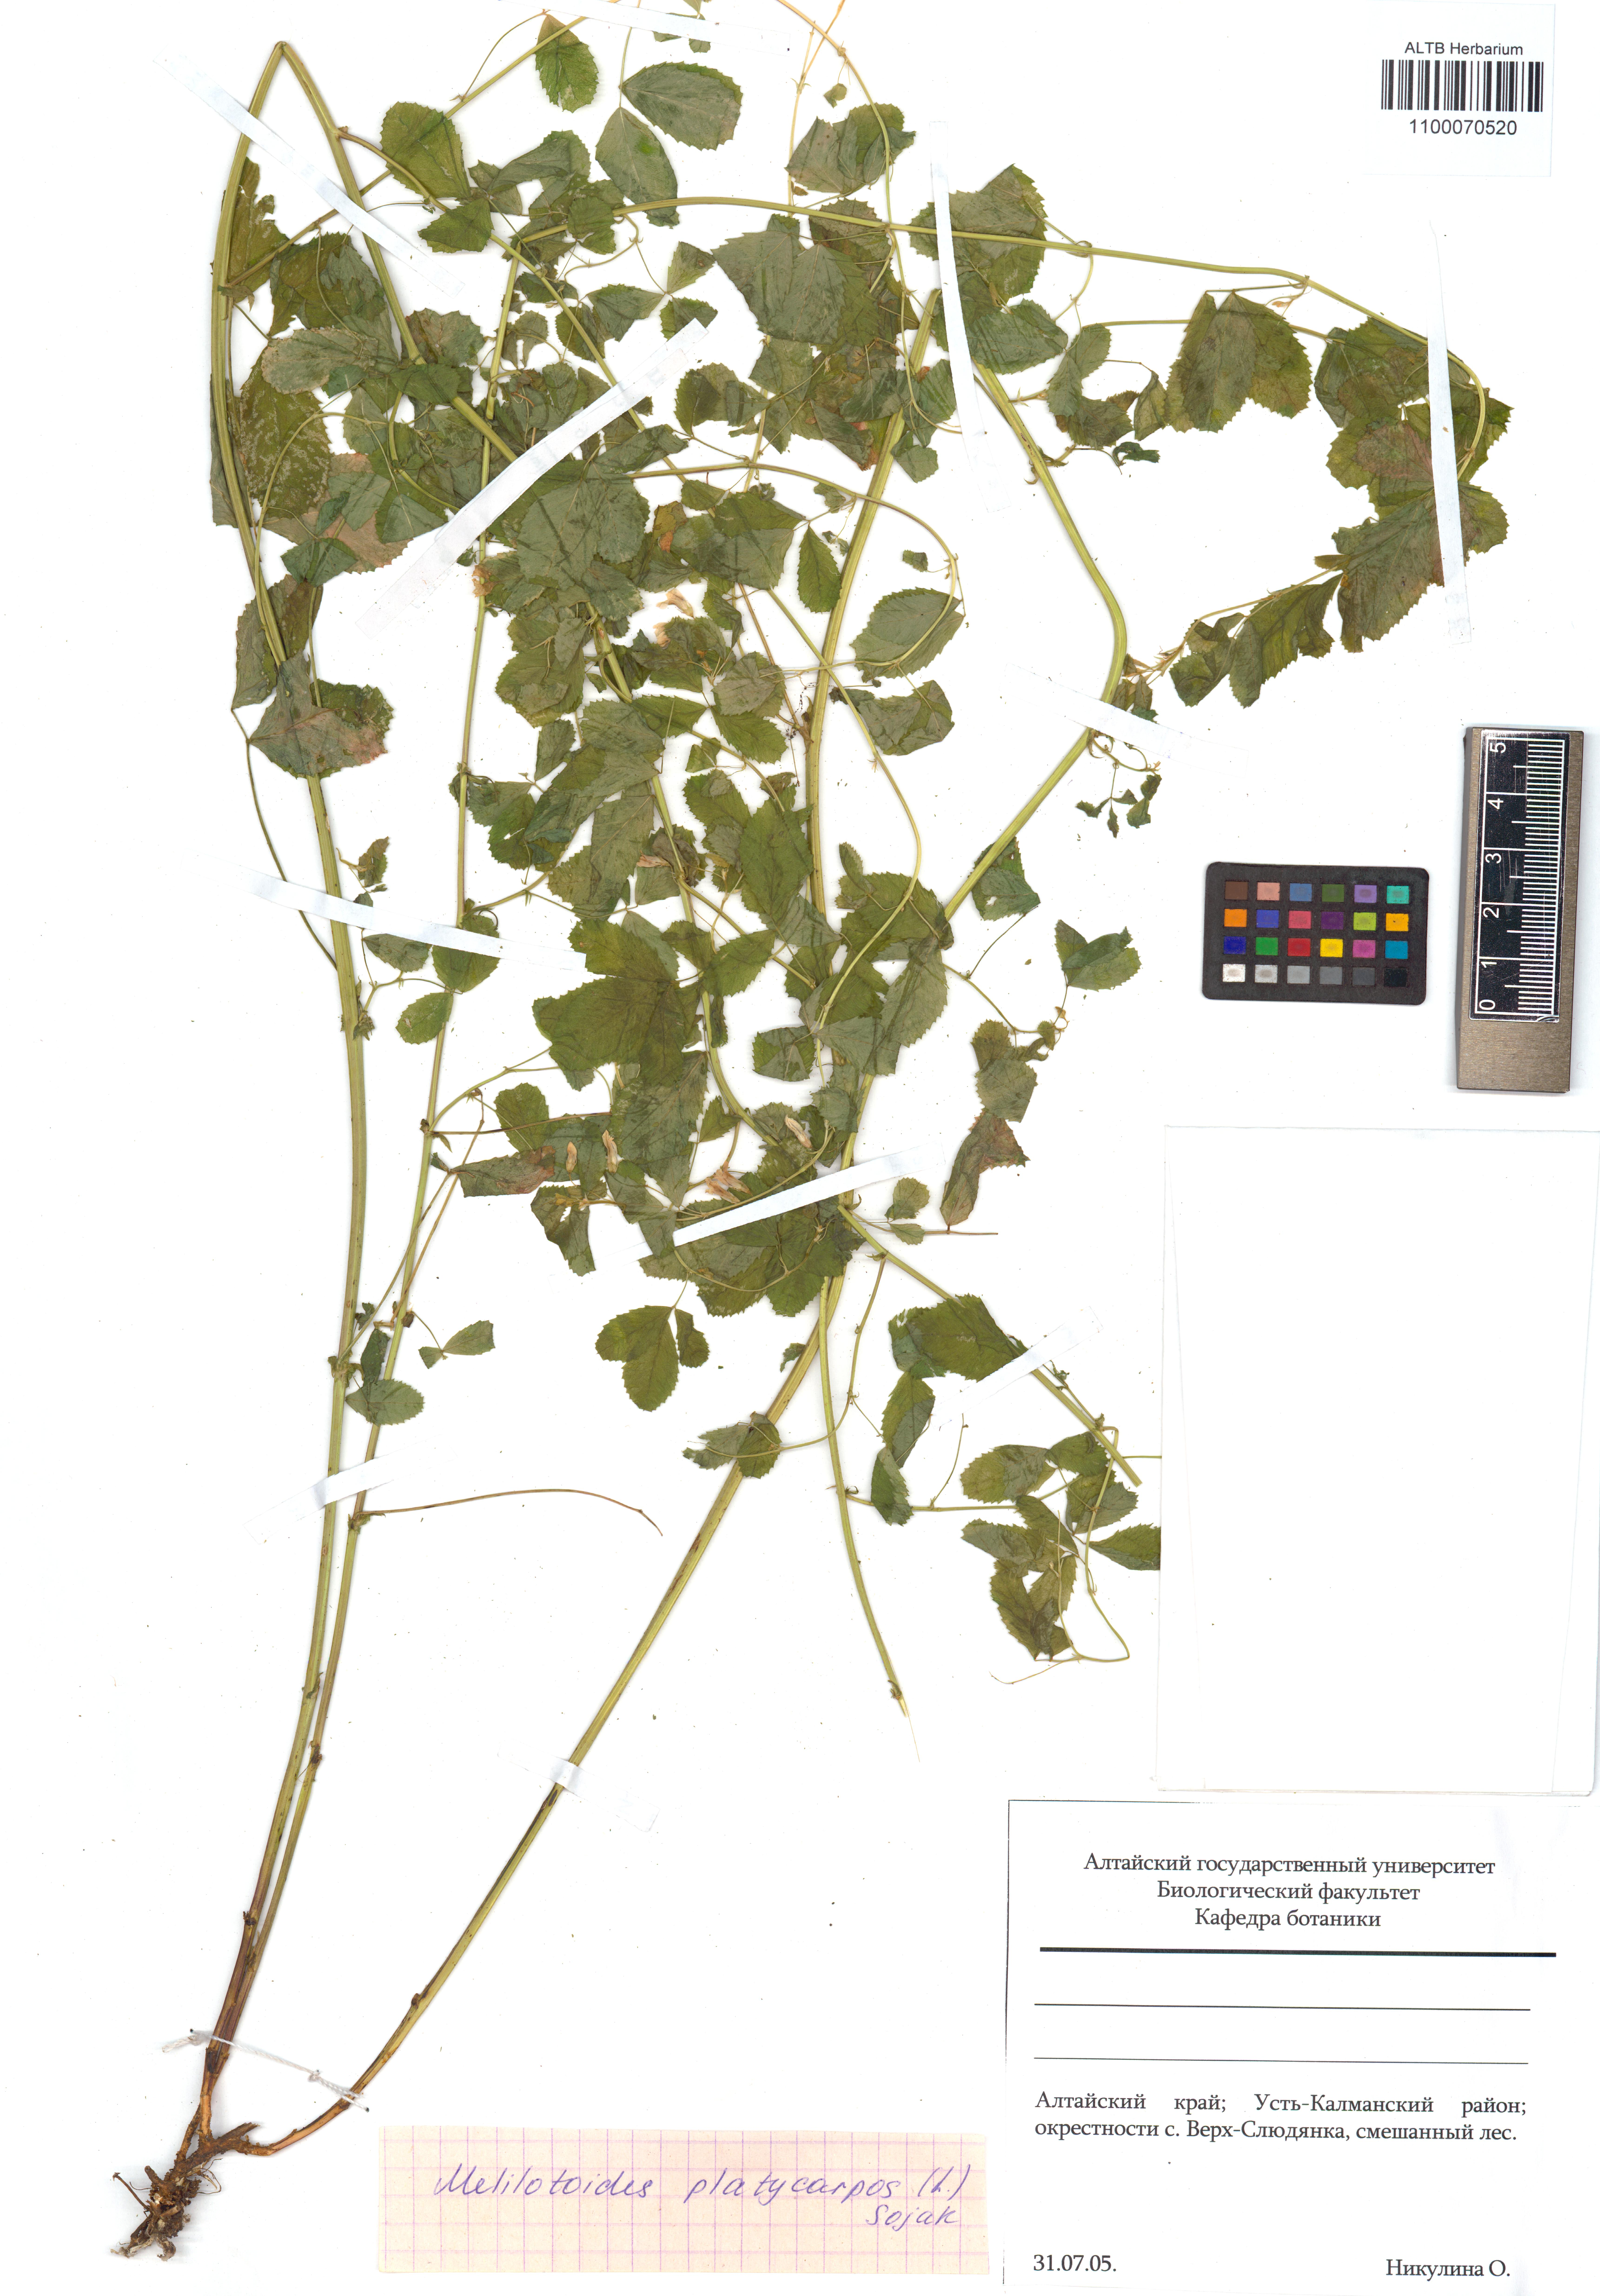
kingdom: Plantae
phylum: Tracheophyta
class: Magnoliopsida
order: Fabales
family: Fabaceae
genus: Medicago
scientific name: Medicago platycarpos
